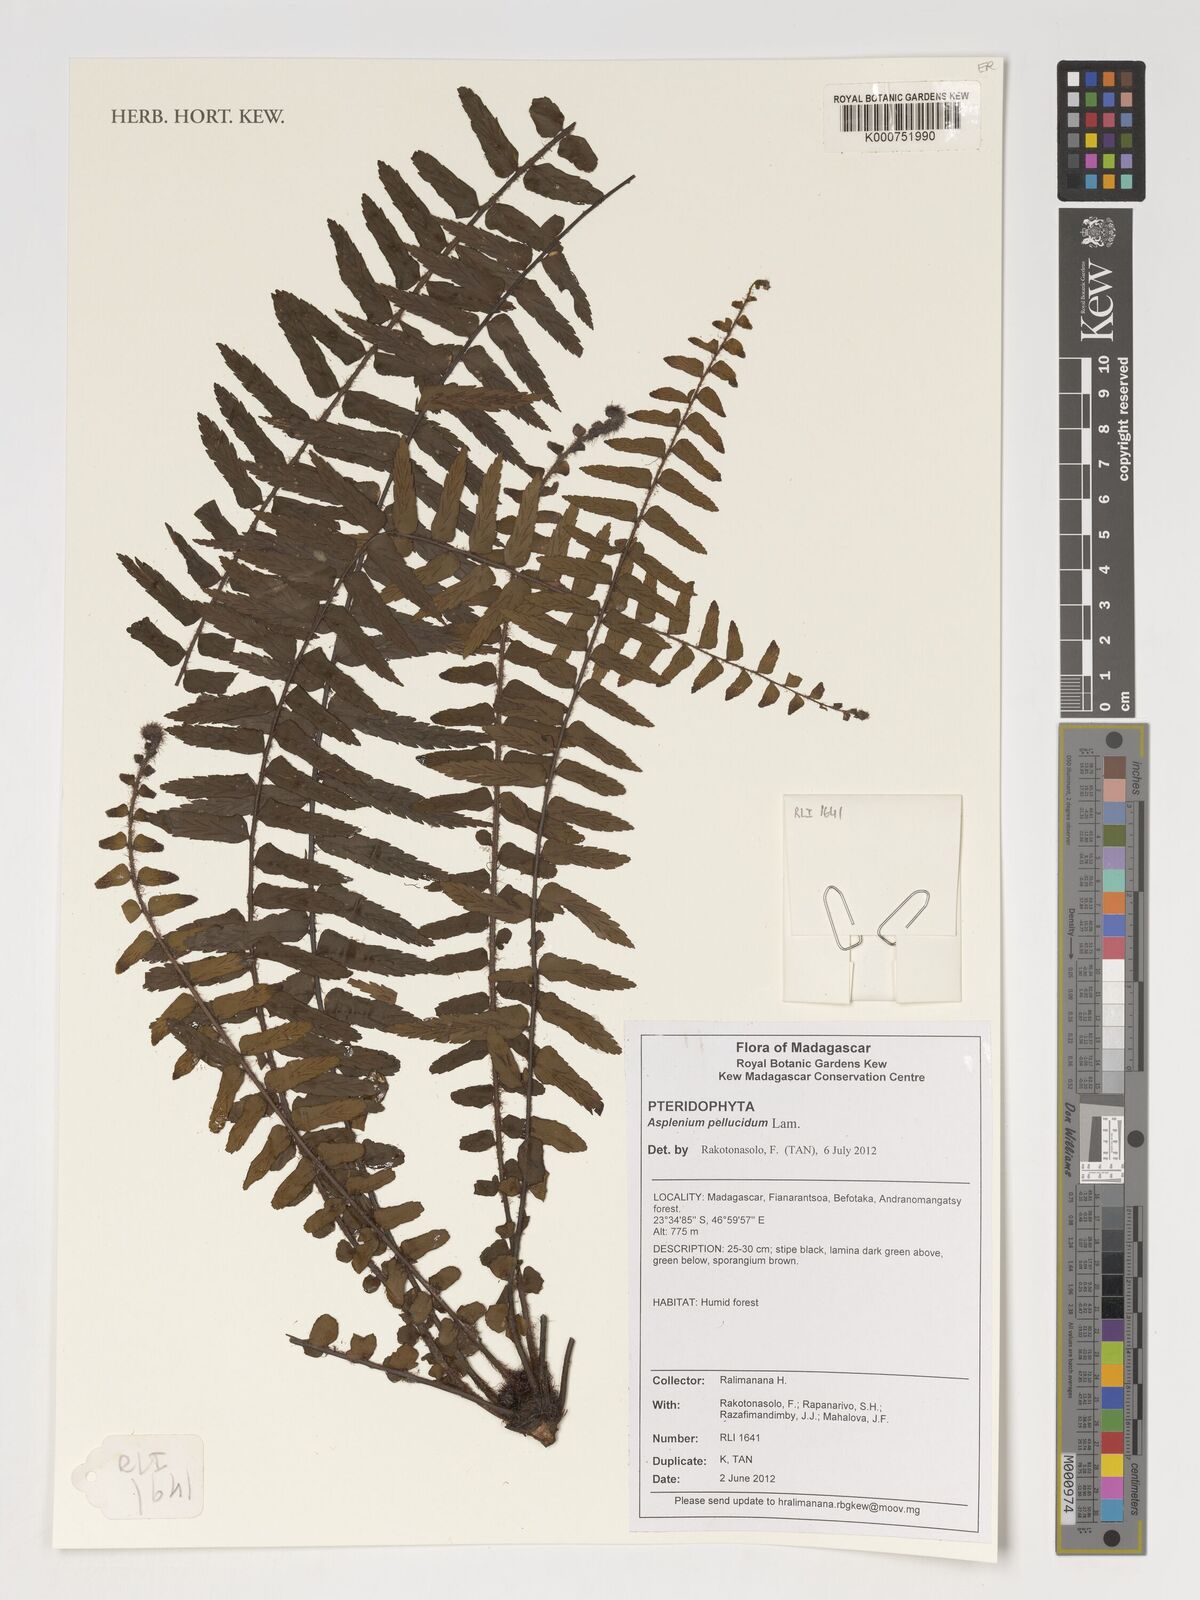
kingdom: Plantae
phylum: Tracheophyta
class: Polypodiopsida
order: Polypodiales
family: Aspleniaceae
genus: Asplenium
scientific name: Asplenium pellucidum
